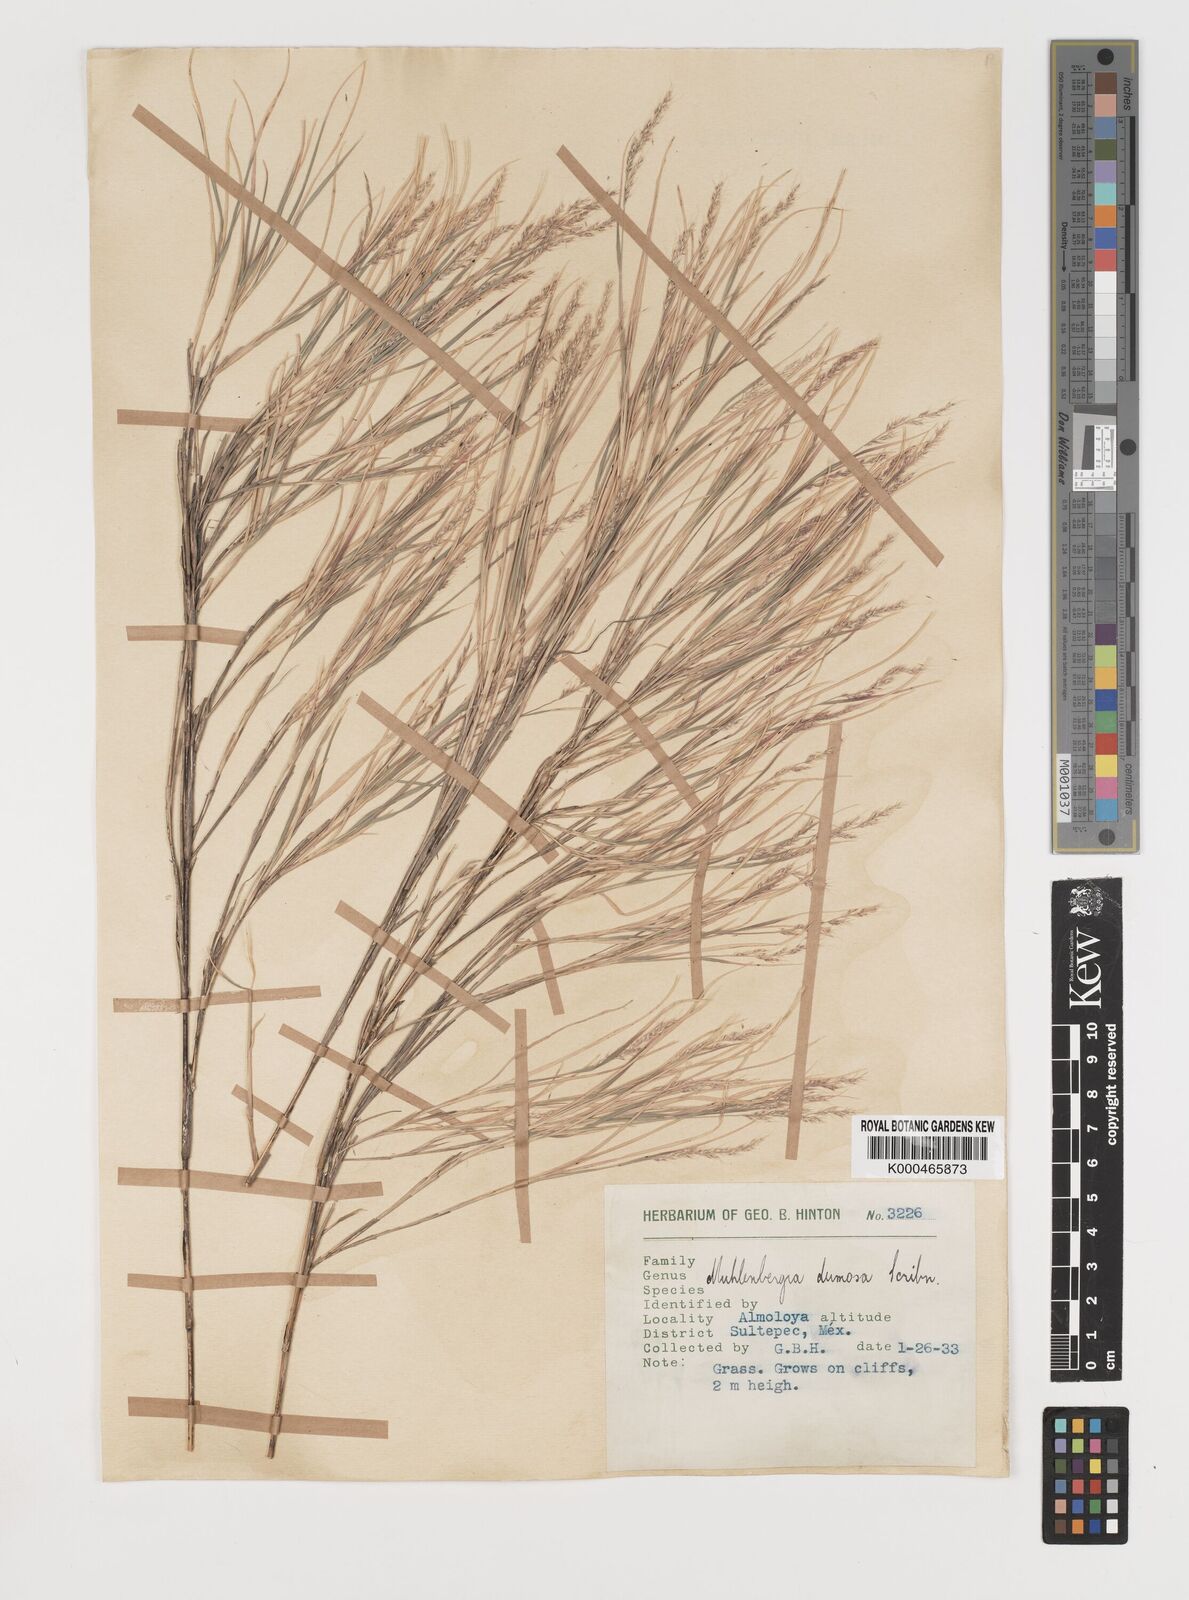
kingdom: Plantae
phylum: Tracheophyta
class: Liliopsida
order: Poales
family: Poaceae
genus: Muhlenbergia
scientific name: Muhlenbergia dumosa
